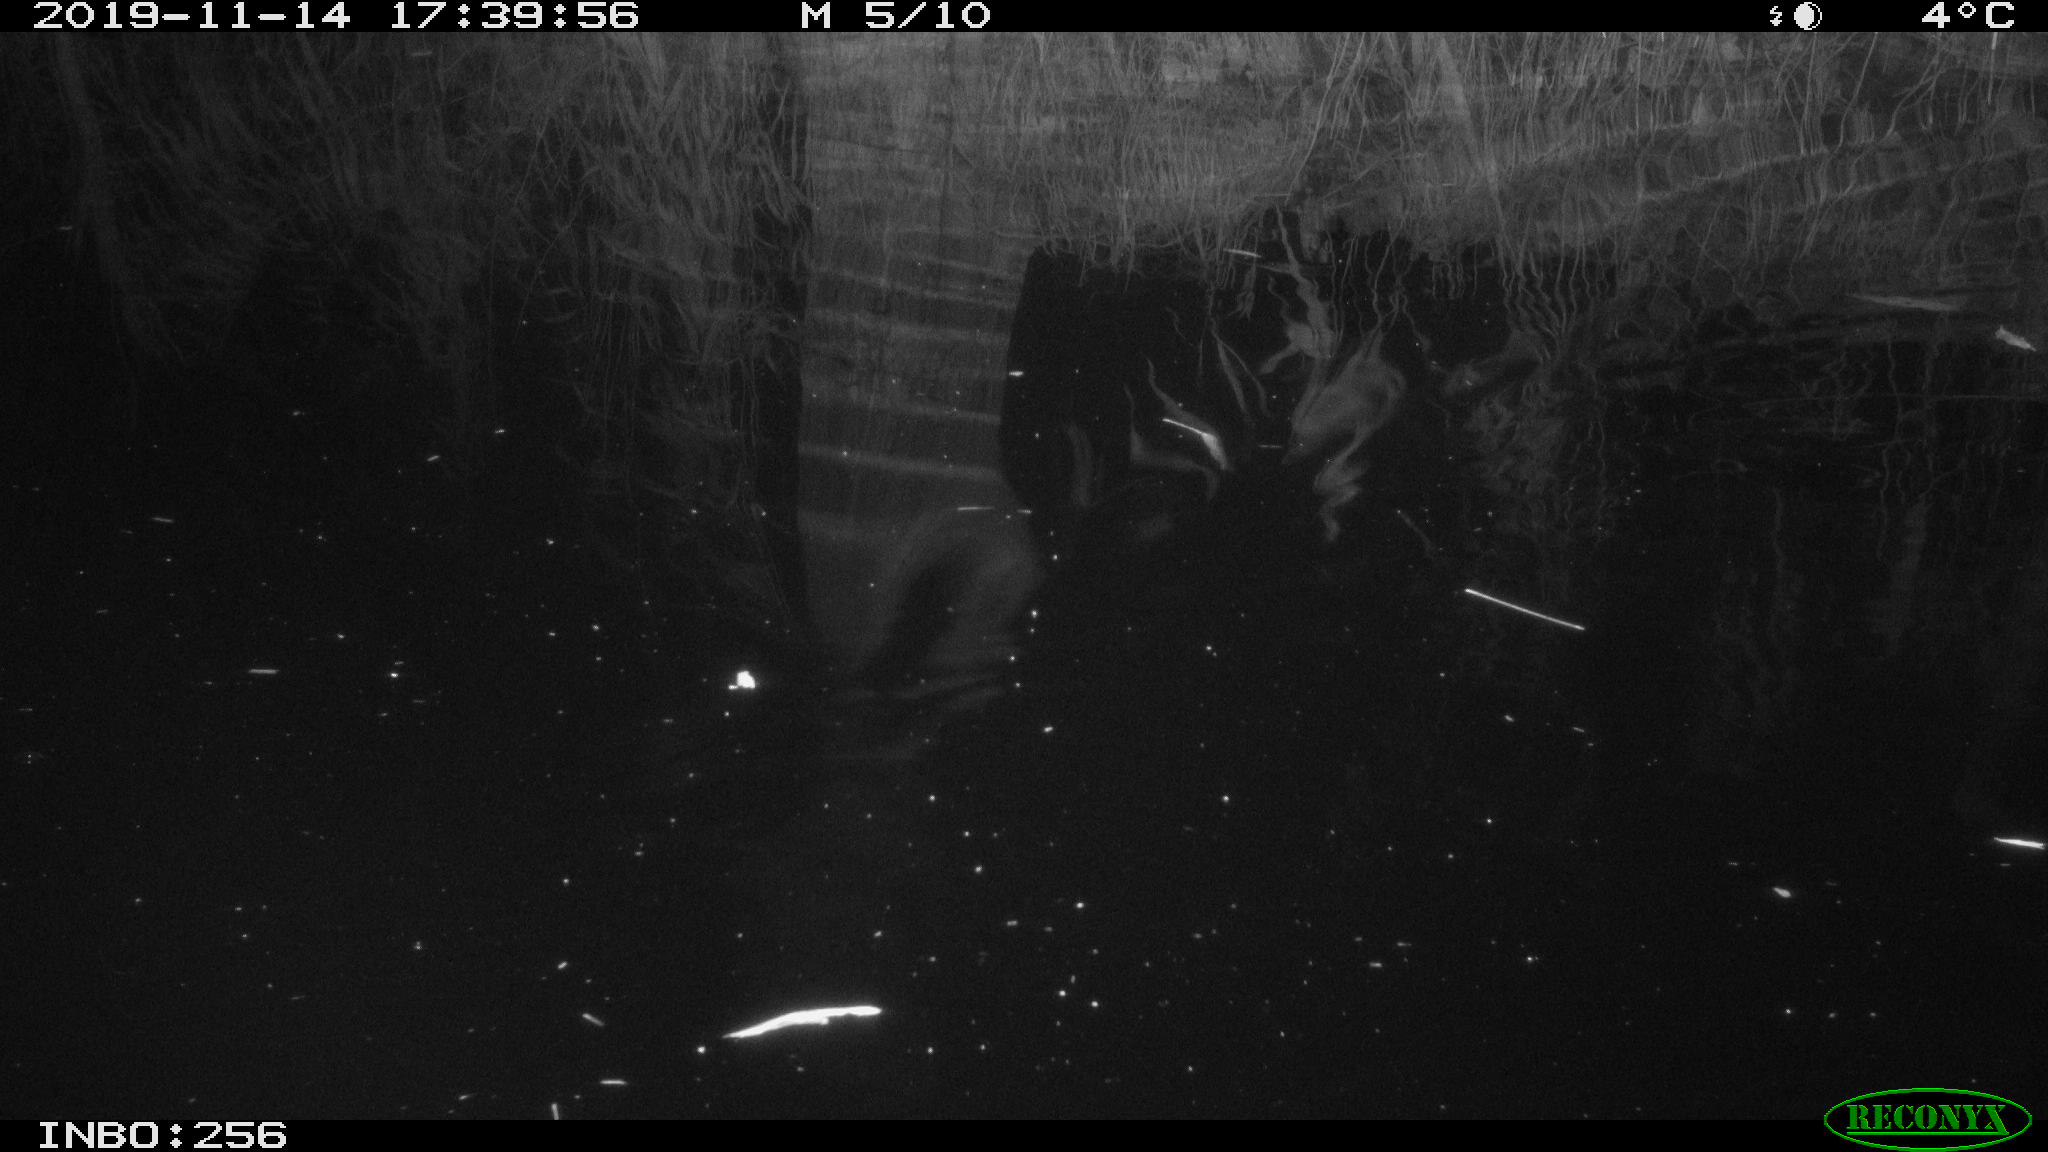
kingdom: Animalia
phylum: Chordata
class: Mammalia
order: Rodentia
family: Muridae
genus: Rattus
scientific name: Rattus norvegicus
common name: Brown rat
